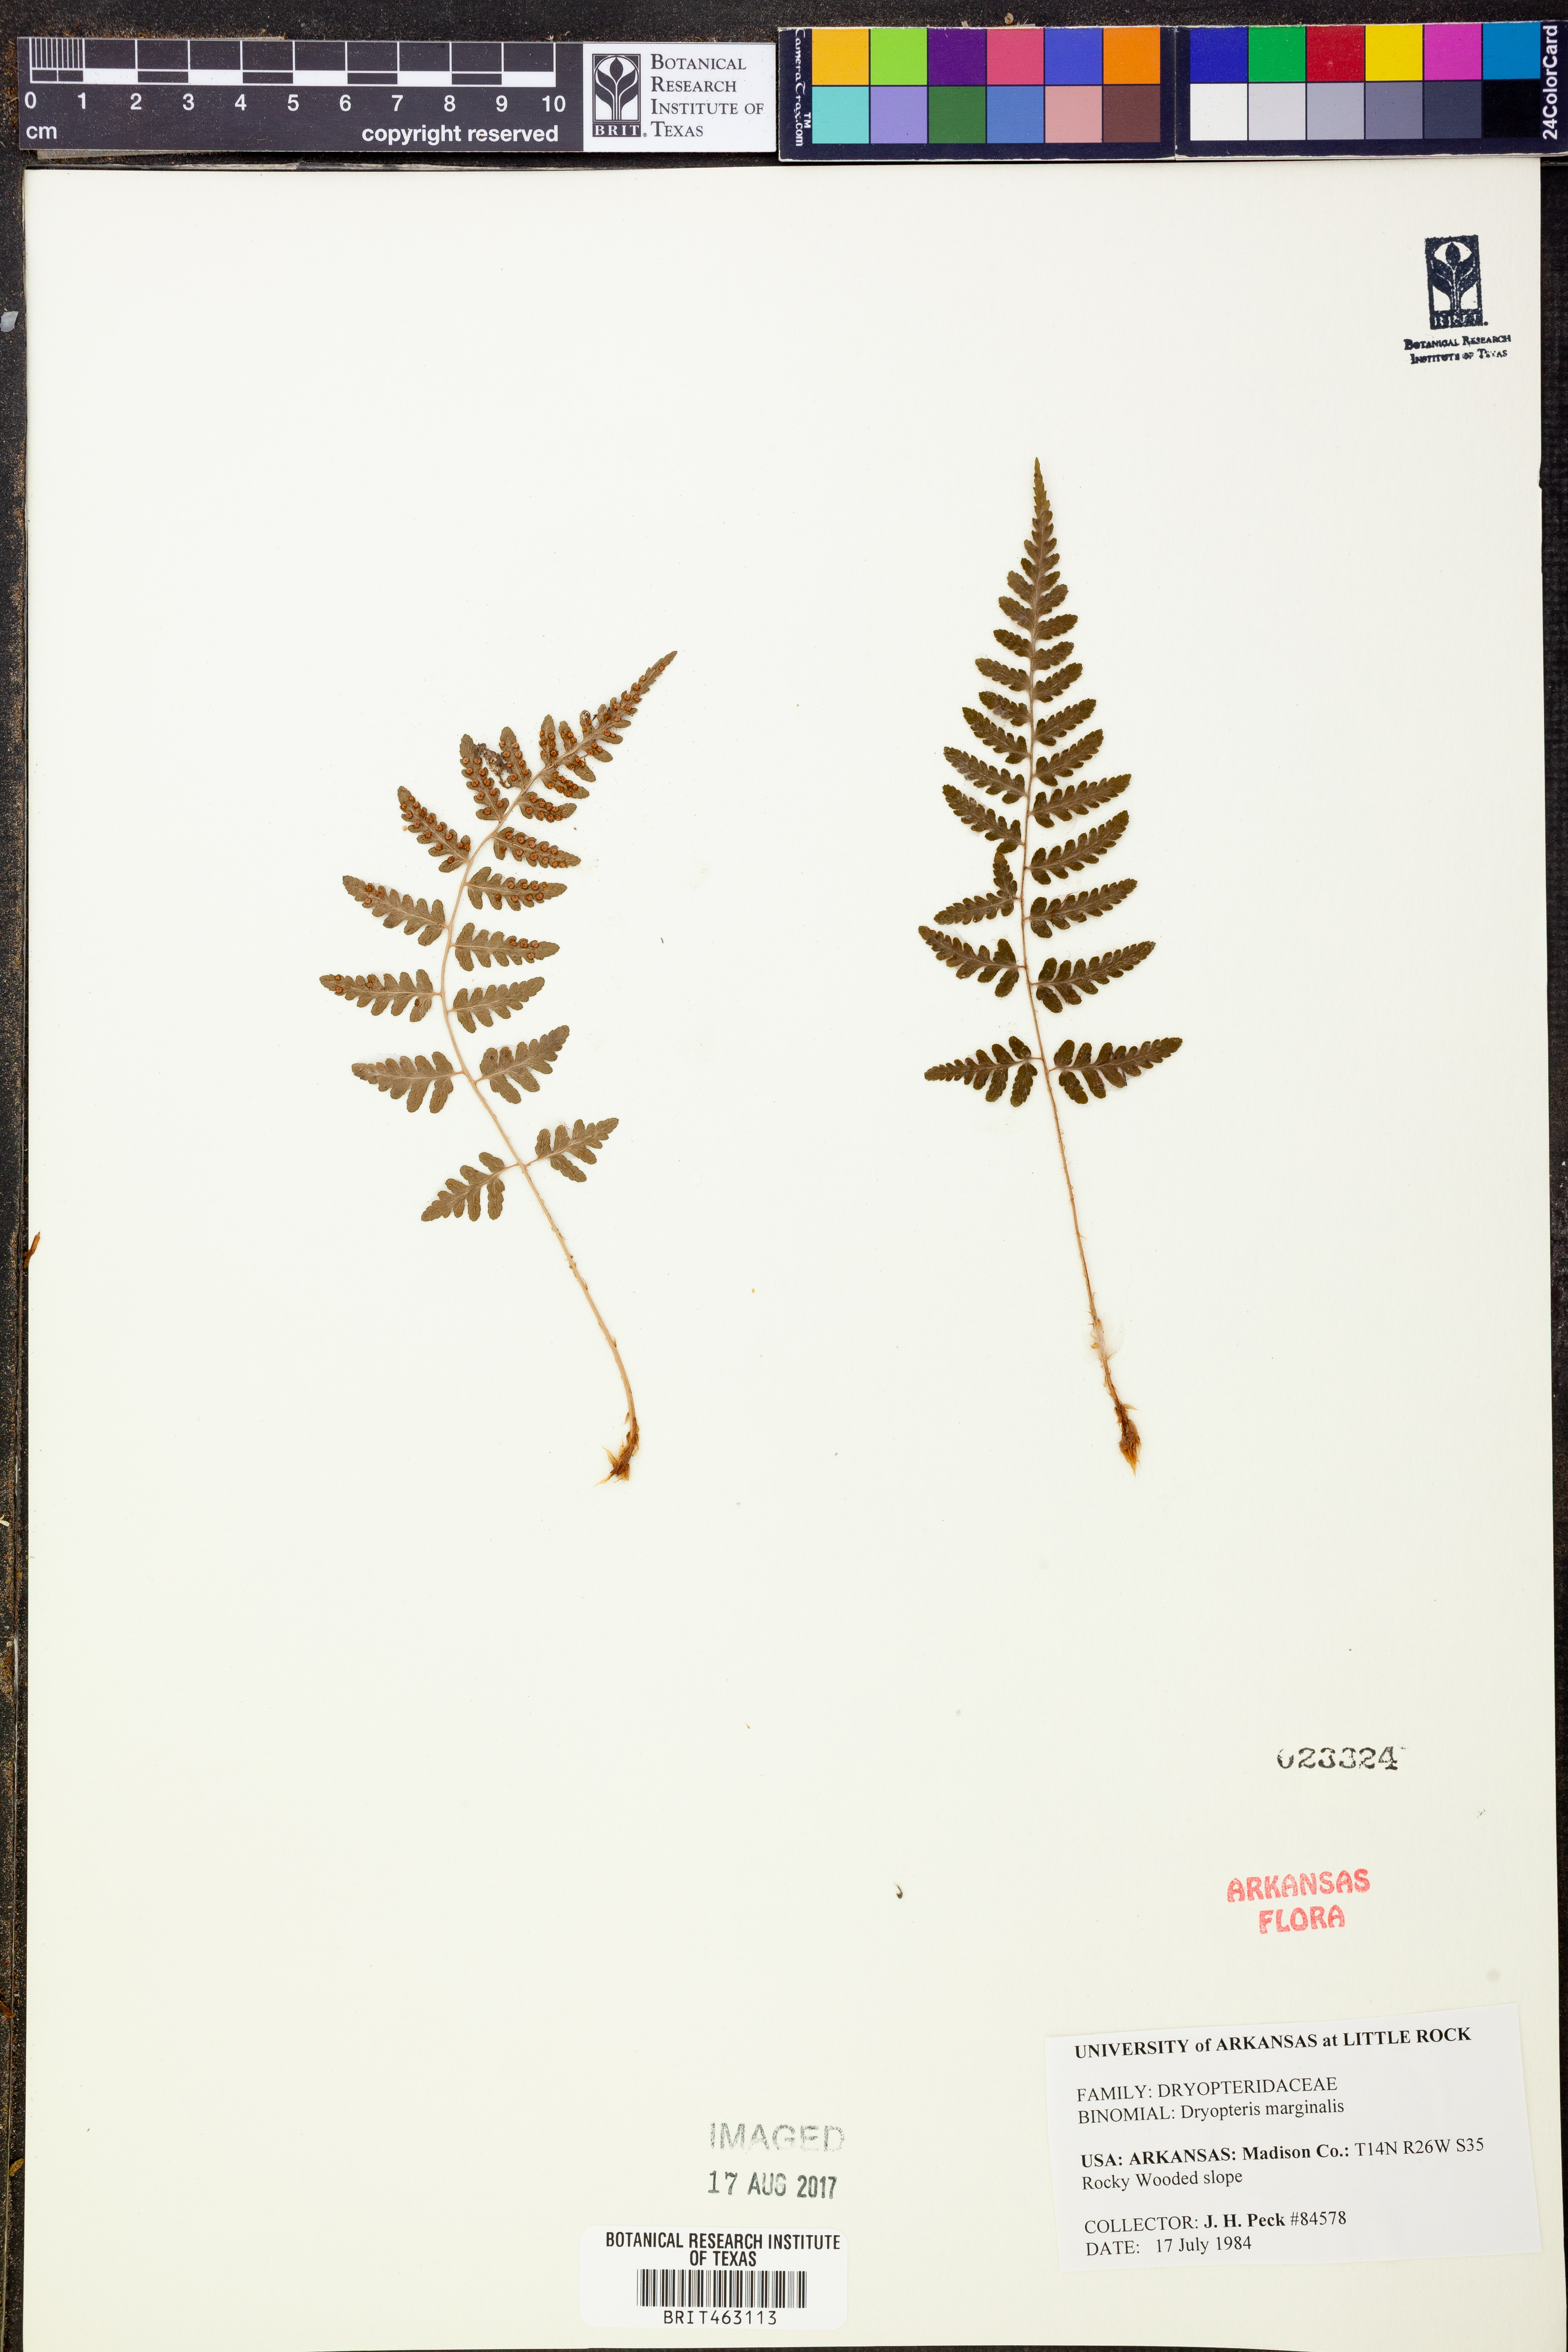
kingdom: Plantae
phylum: Tracheophyta
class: Polypodiopsida
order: Polypodiales
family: Dryopteridaceae
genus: Dryopteris
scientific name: Dryopteris marginalis
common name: Marginal wood fern
